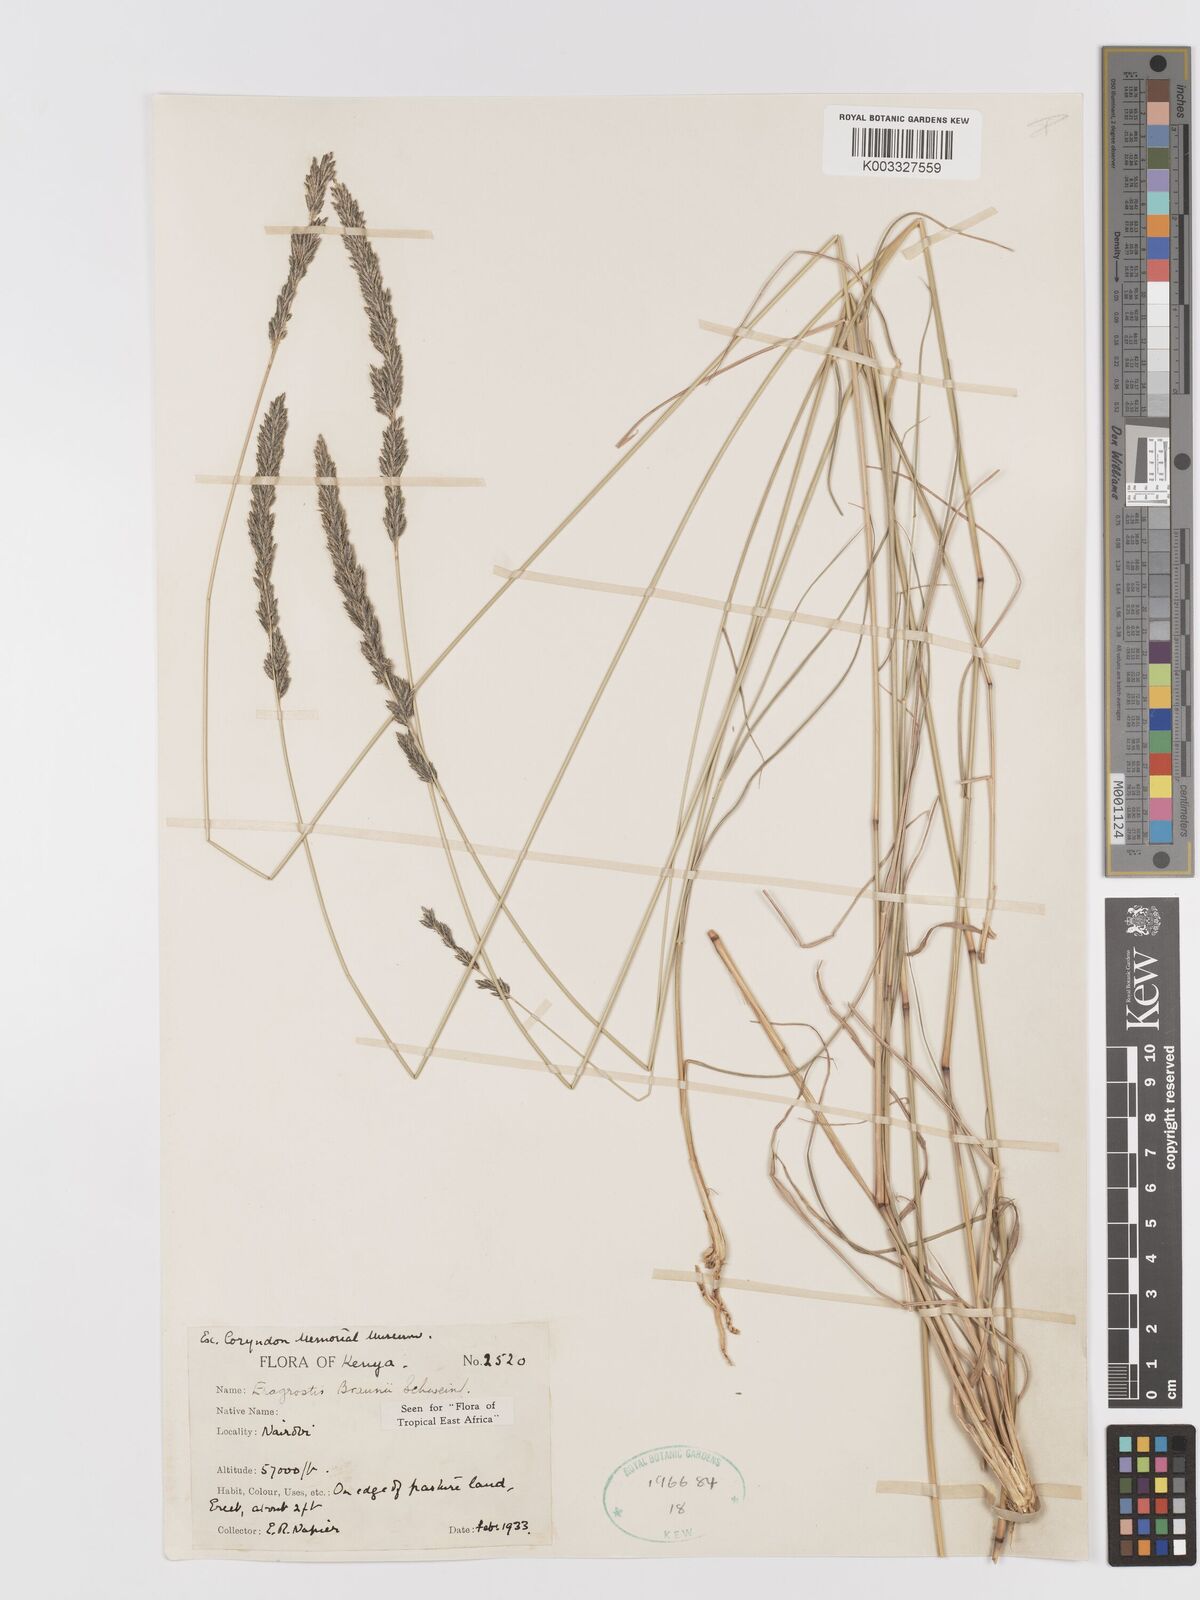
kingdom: Plantae
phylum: Tracheophyta
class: Liliopsida
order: Poales
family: Poaceae
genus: Eragrostis
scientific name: Eragrostis braunii
